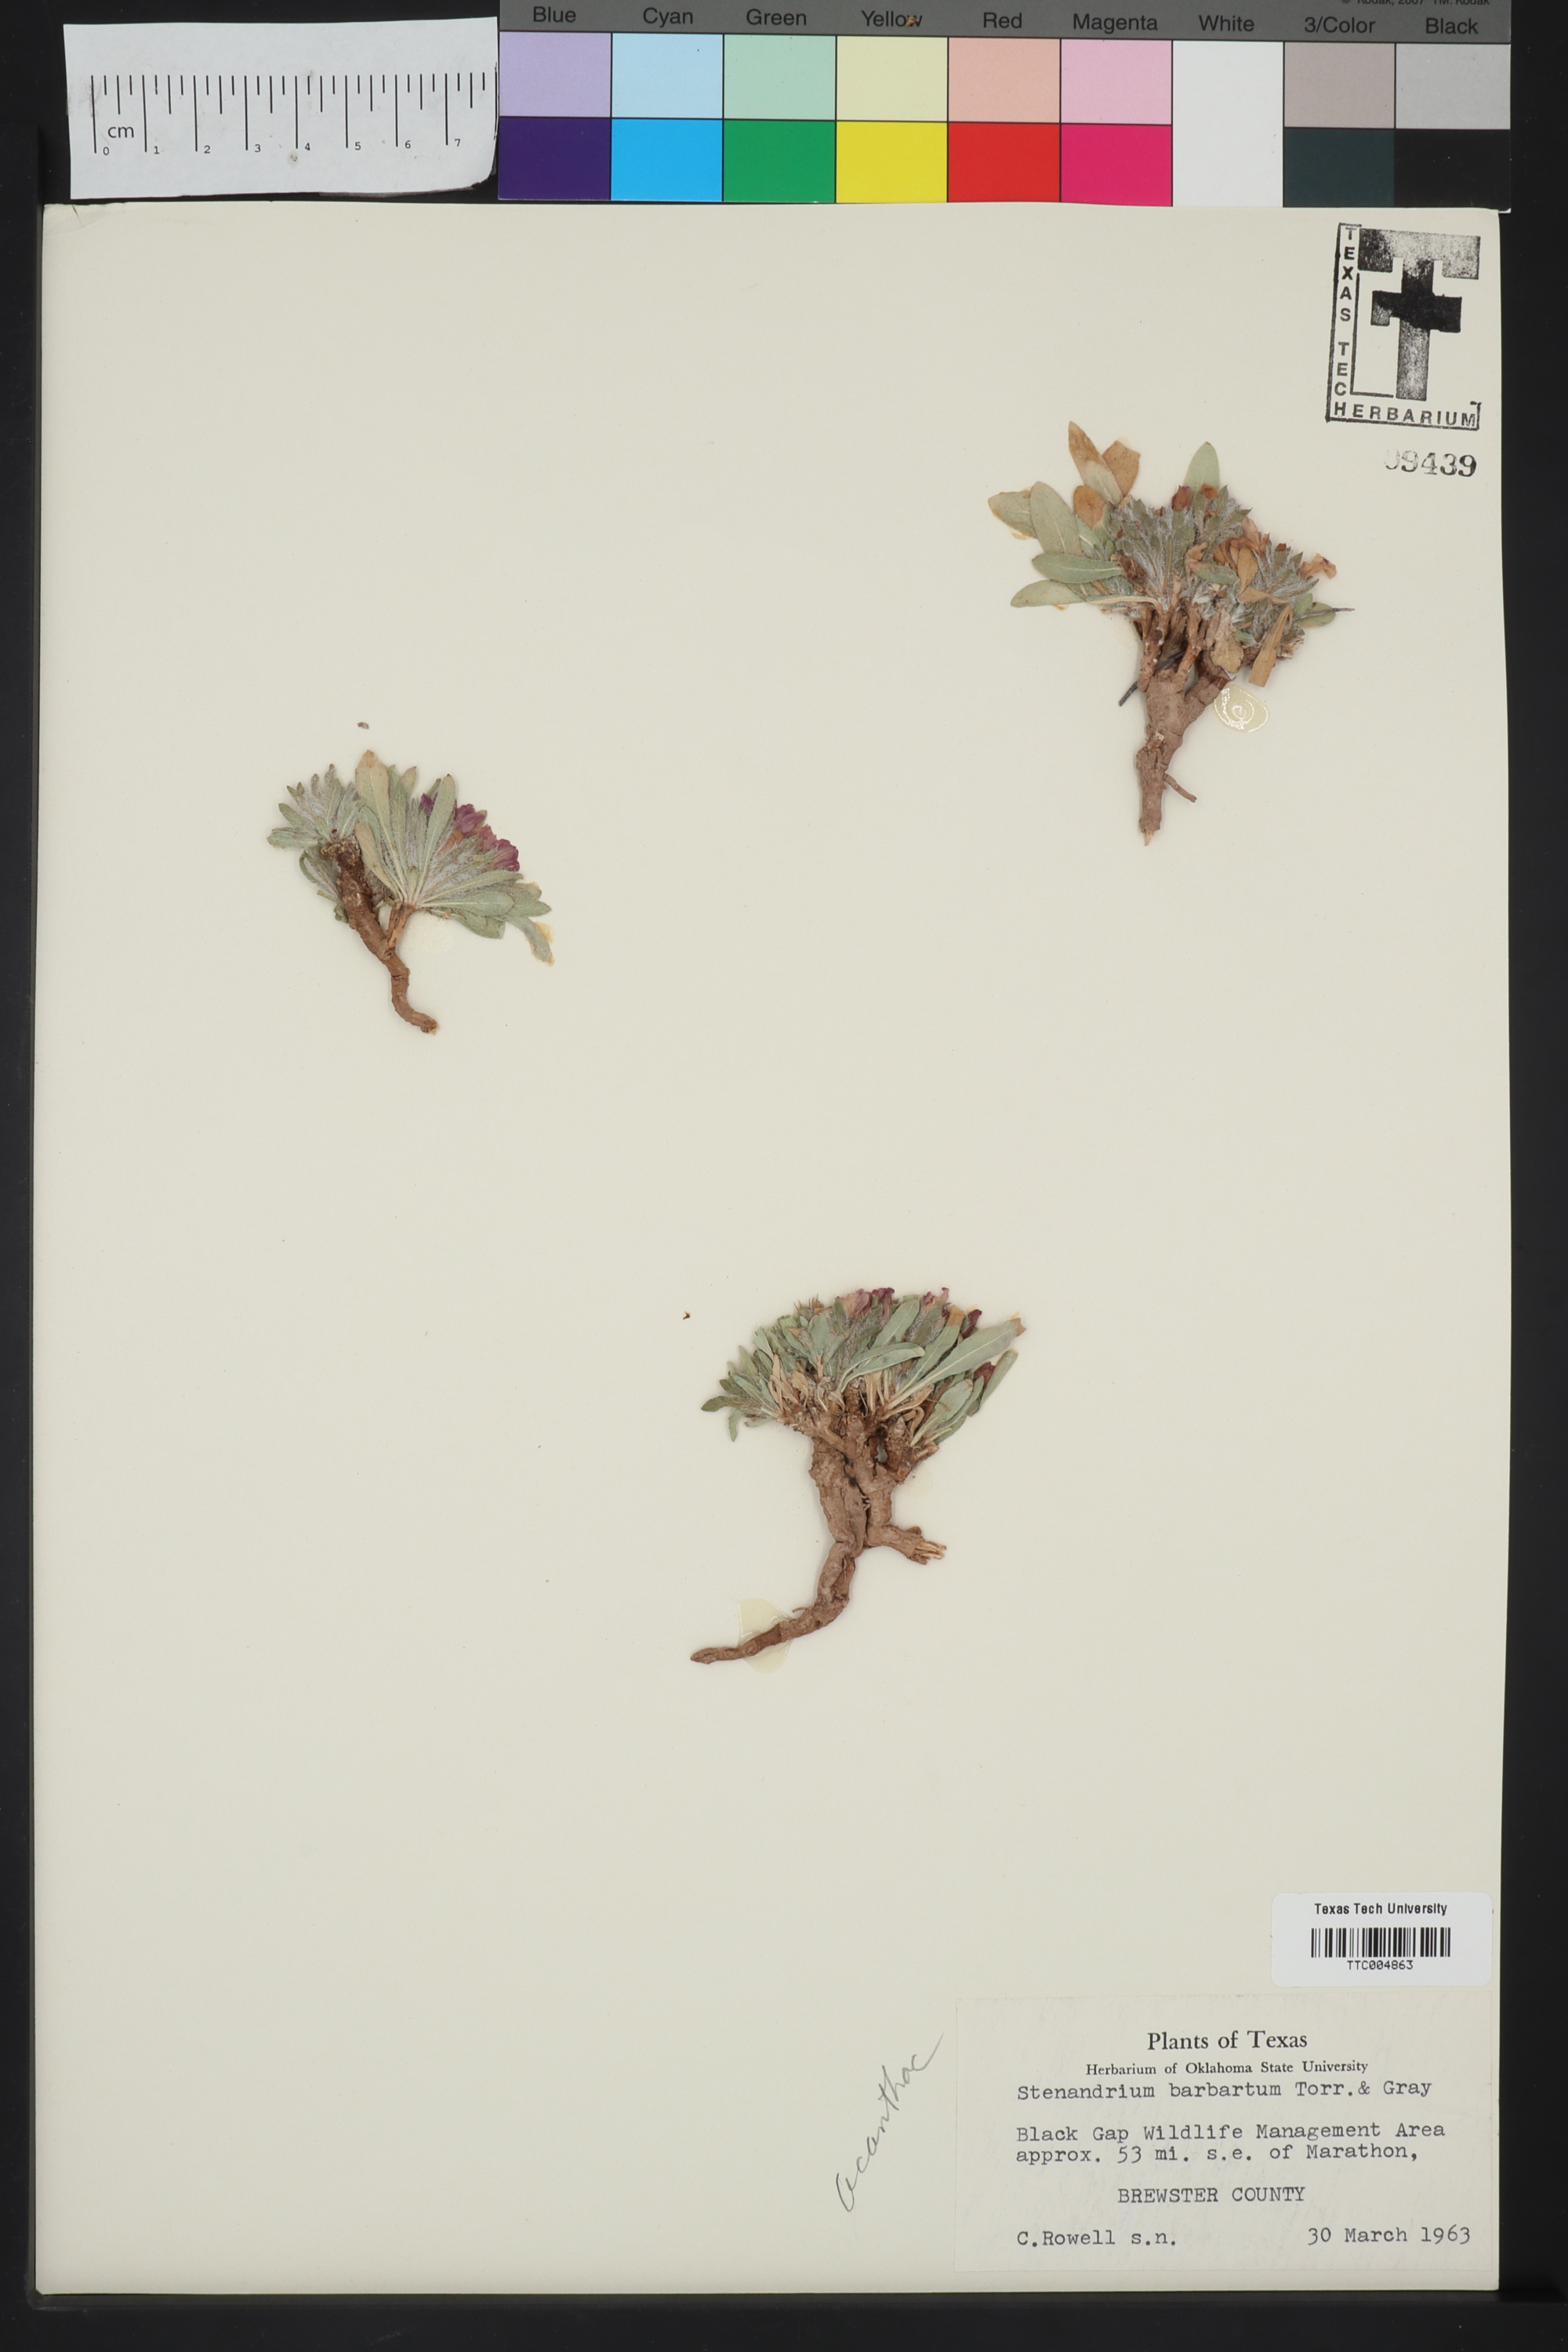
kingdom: Plantae
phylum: Tracheophyta
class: Magnoliopsida
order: Lamiales
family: Acanthaceae
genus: Stenandrium
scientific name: Stenandrium barbatum
